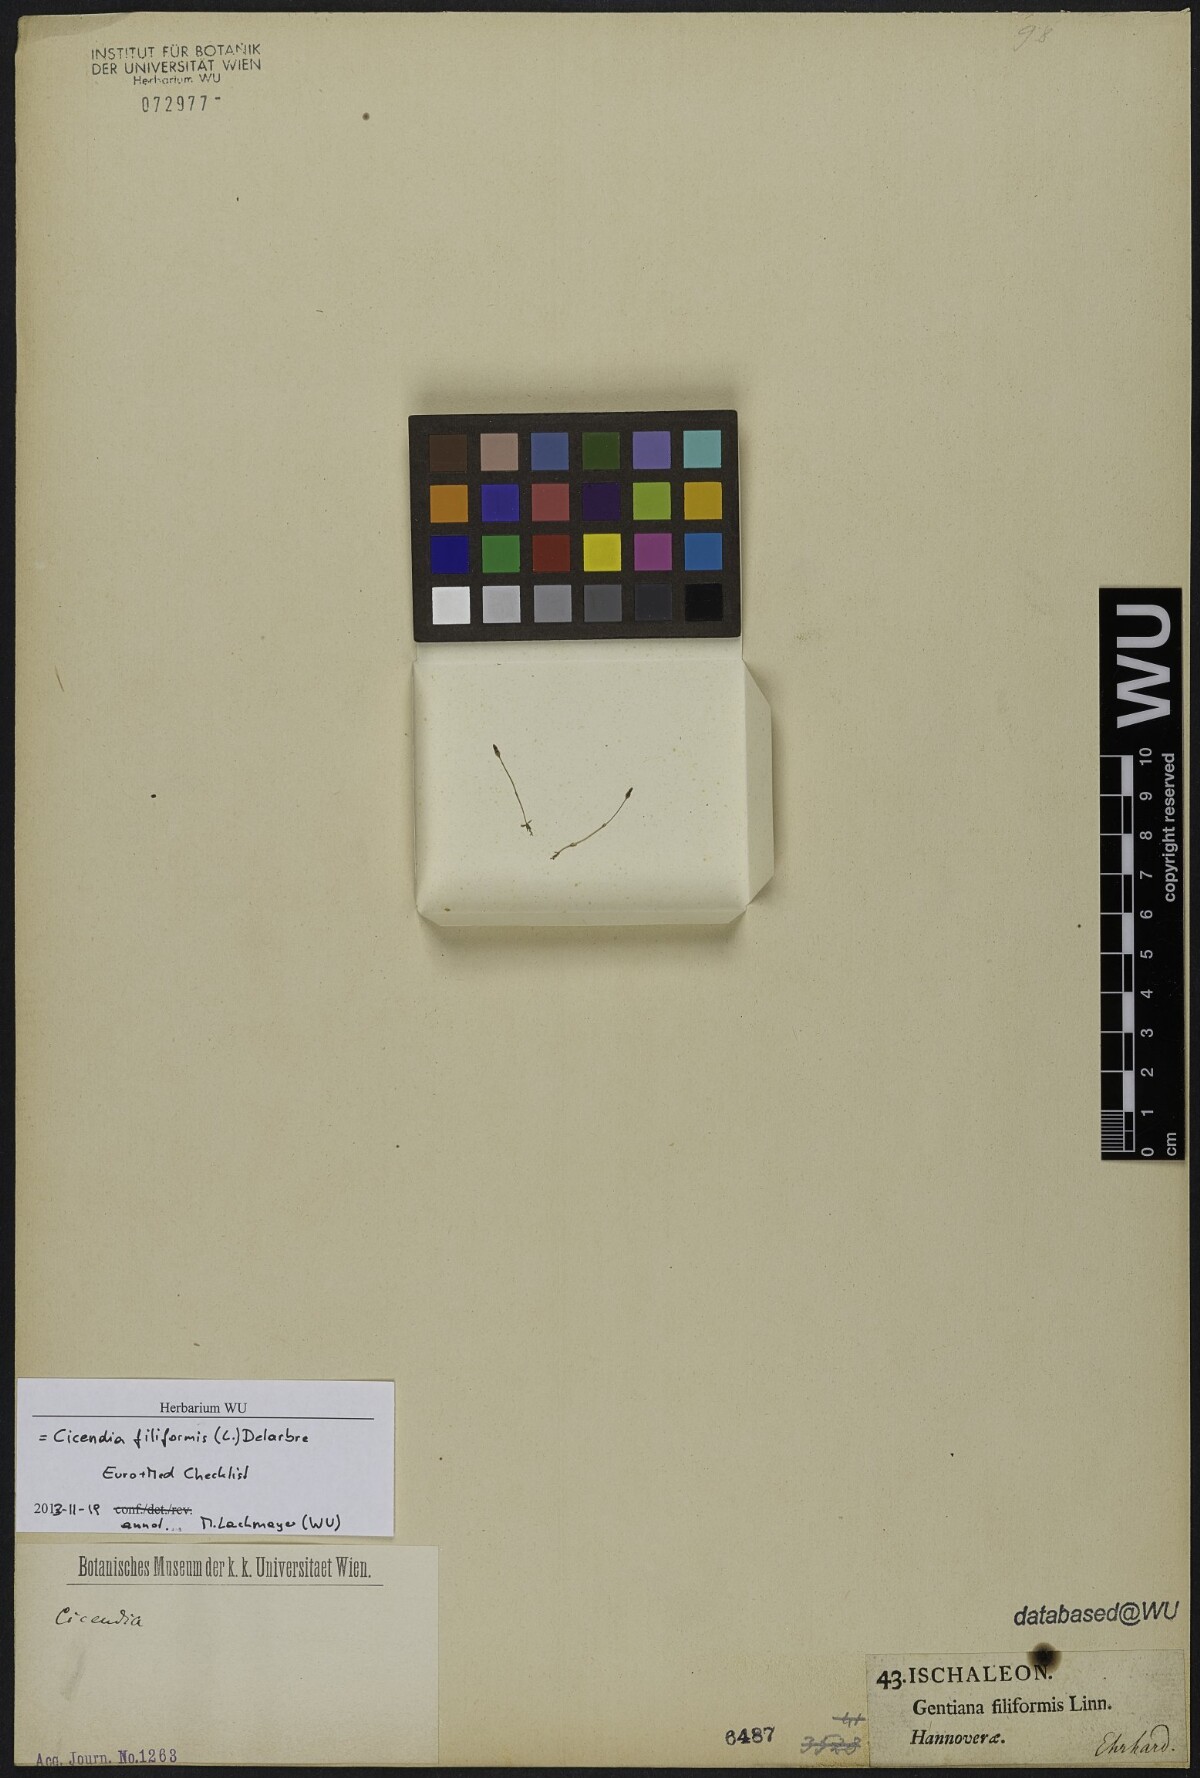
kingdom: Plantae
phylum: Tracheophyta
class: Magnoliopsida
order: Gentianales
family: Gentianaceae
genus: Cicendia
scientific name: Cicendia filiformis
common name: Yellow centaury
